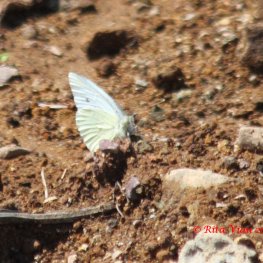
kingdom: Animalia
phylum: Arthropoda
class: Insecta
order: Lepidoptera
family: Pieridae
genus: Pieris
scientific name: Pieris rapae
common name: Cabbage White
